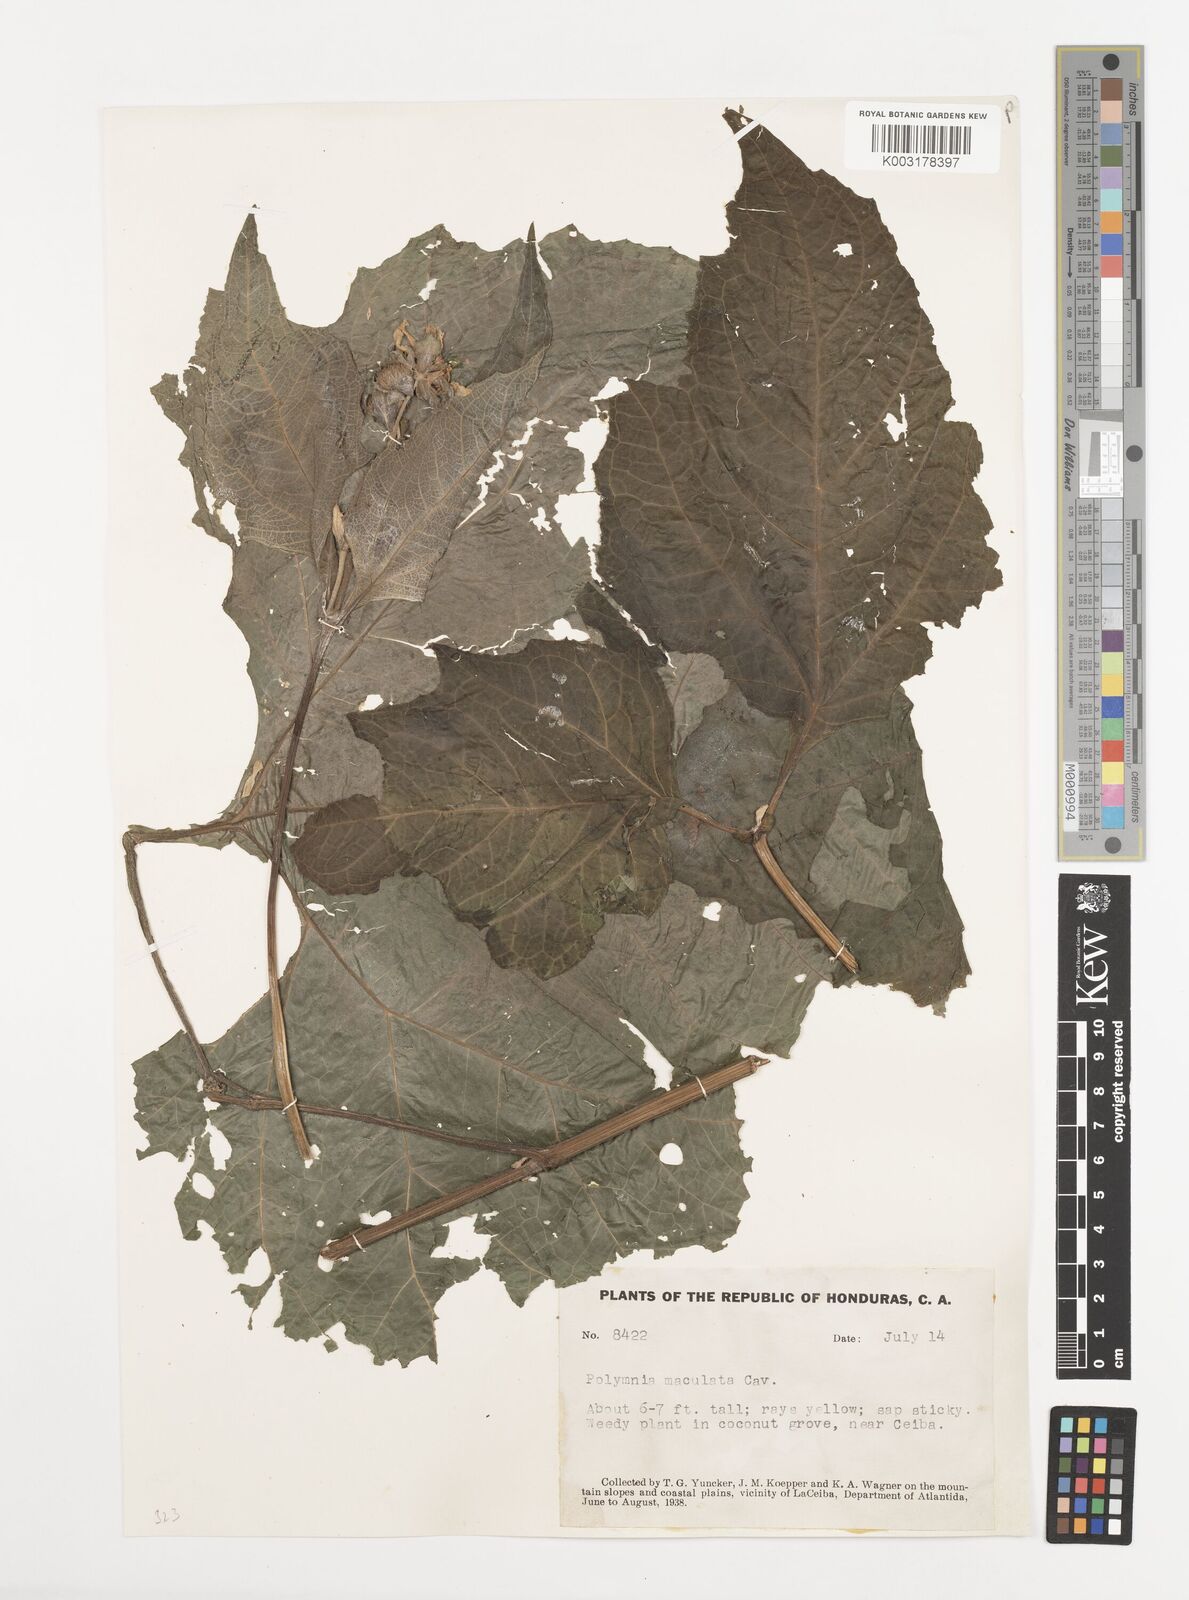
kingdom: Plantae
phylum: Tracheophyta
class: Magnoliopsida
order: Asterales
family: Asteraceae
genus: Smallanthus
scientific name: Smallanthus maculatus
